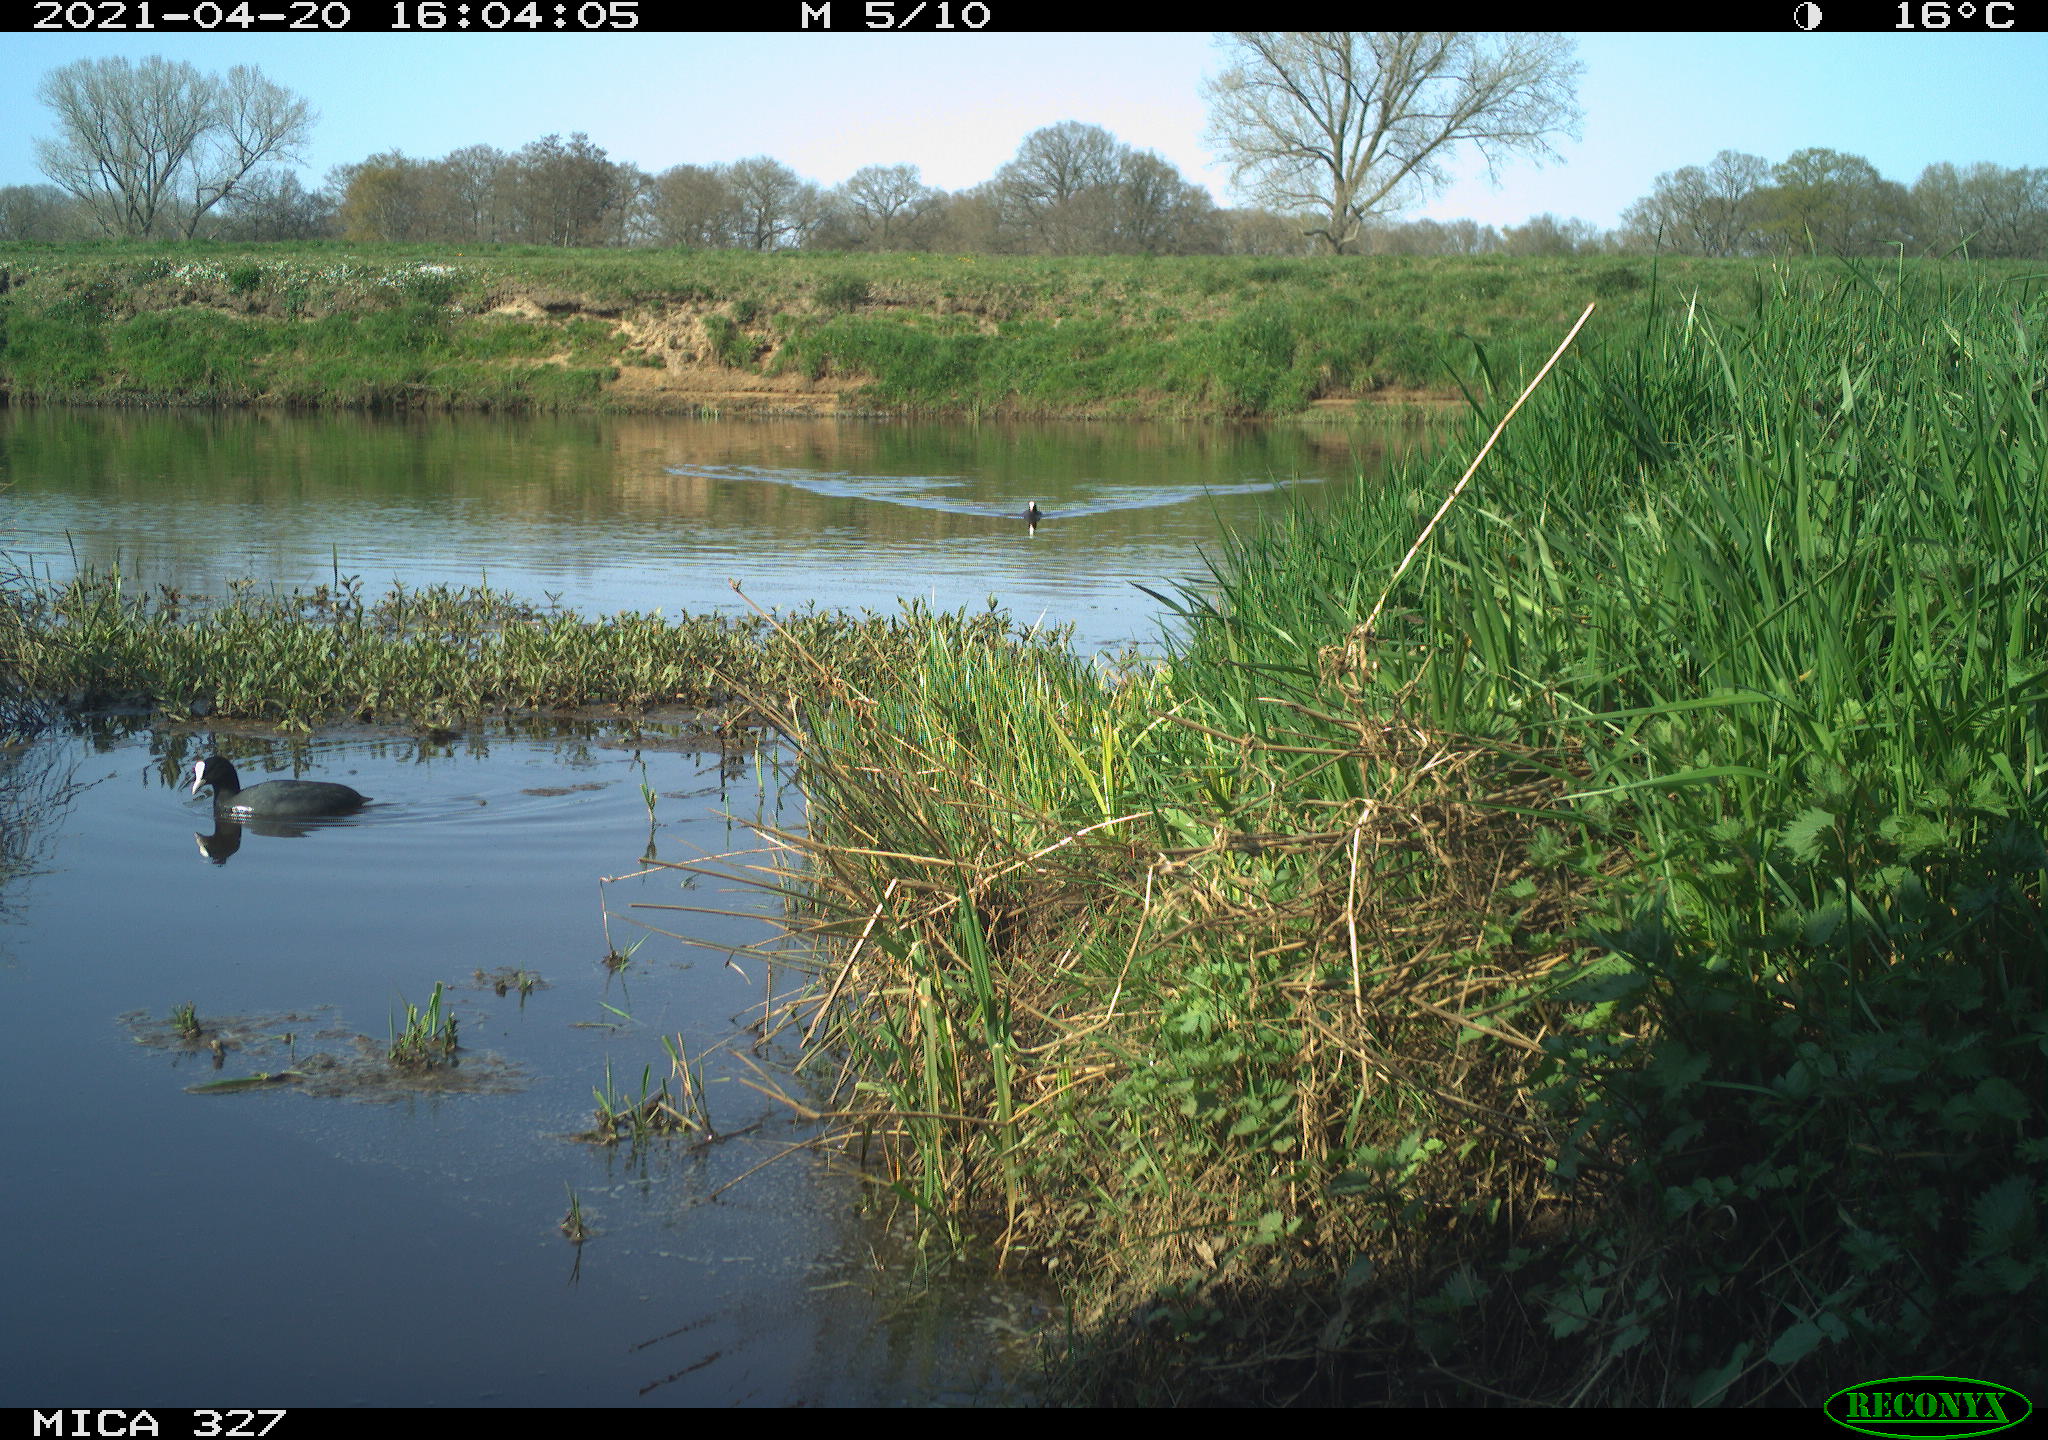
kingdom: Animalia
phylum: Chordata
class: Aves
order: Gruiformes
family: Rallidae
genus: Fulica
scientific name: Fulica atra
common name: Eurasian coot
